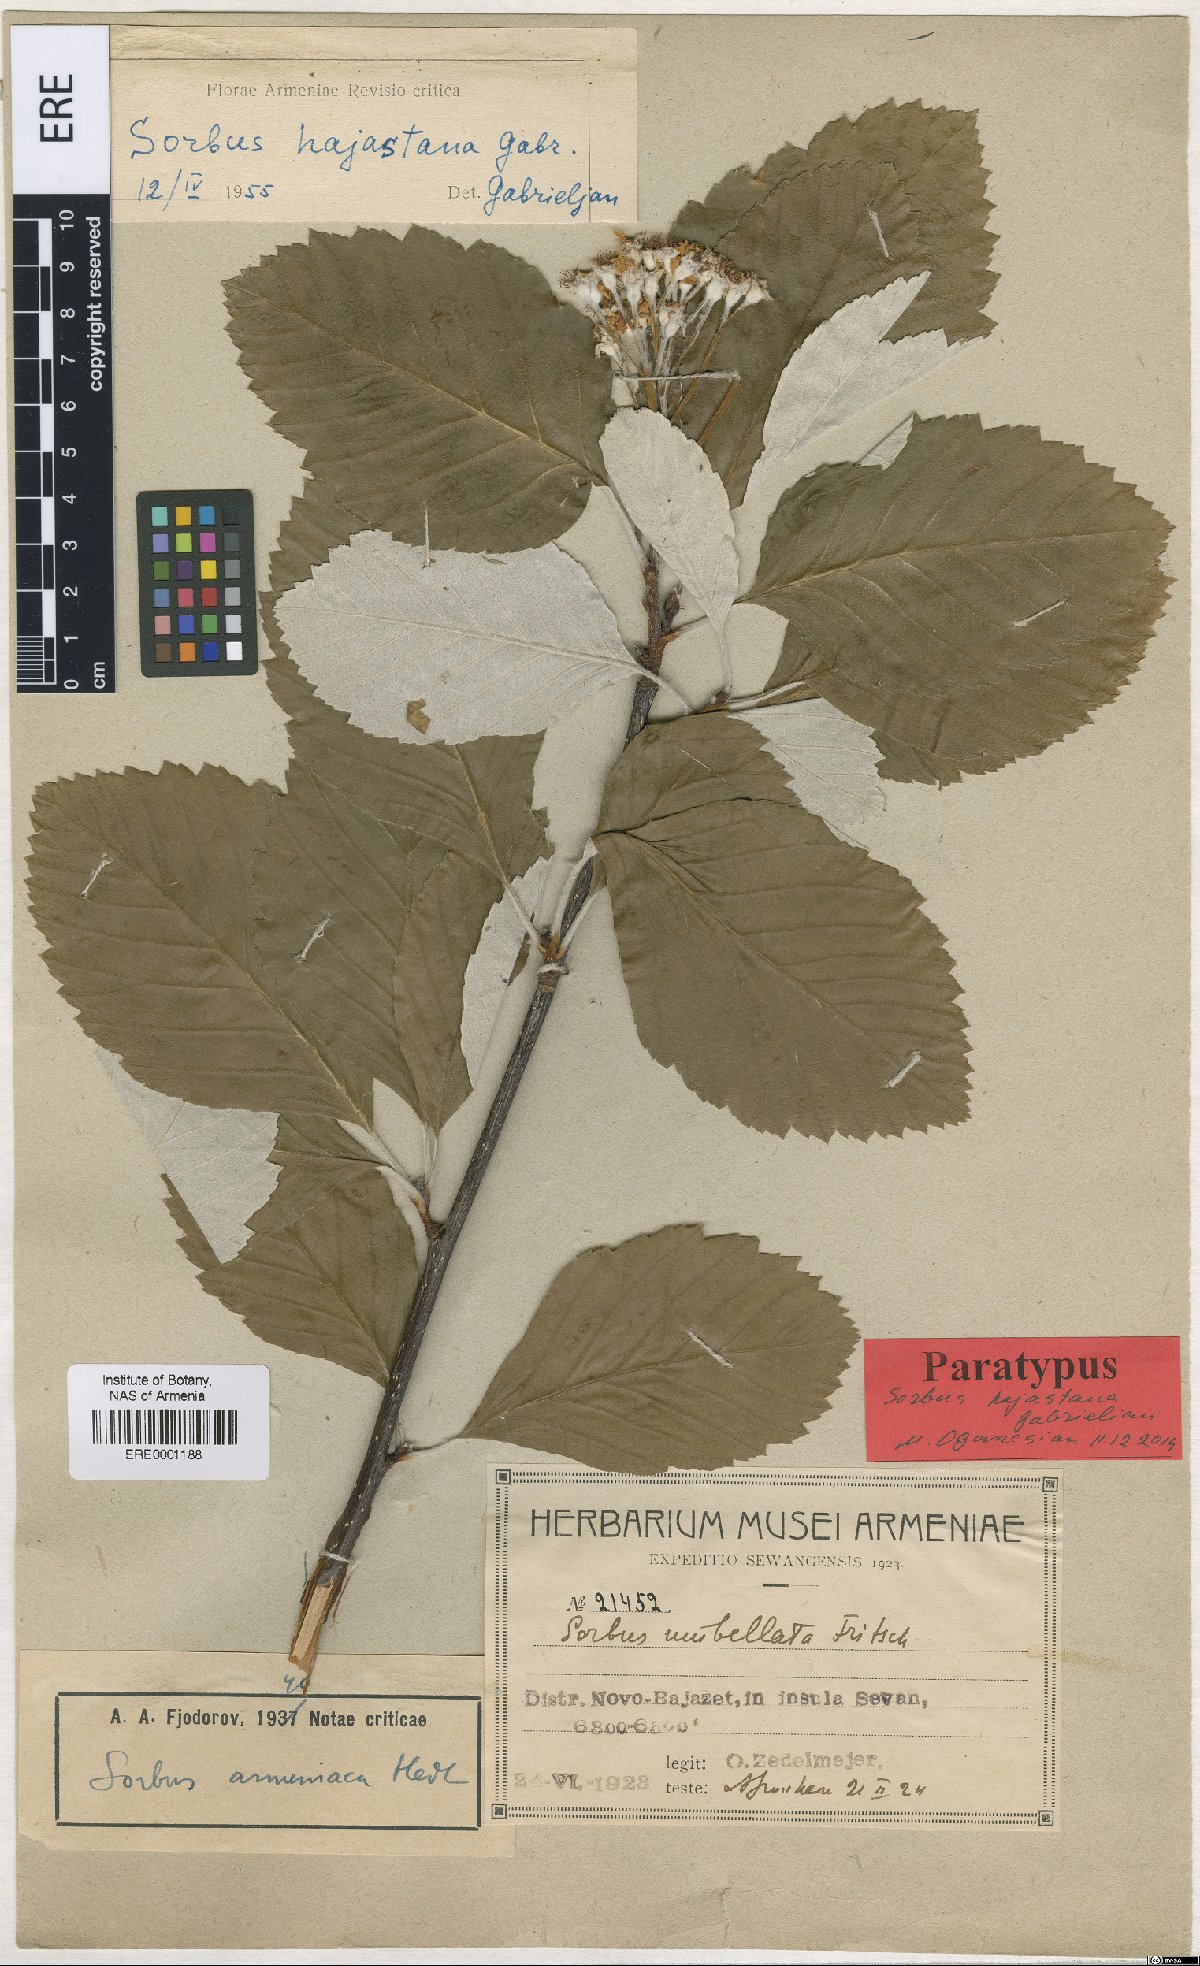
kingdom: Plantae
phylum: Tracheophyta
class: Magnoliopsida
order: Rosales
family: Rosaceae
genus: Sorbus
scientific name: Sorbus hajastana
